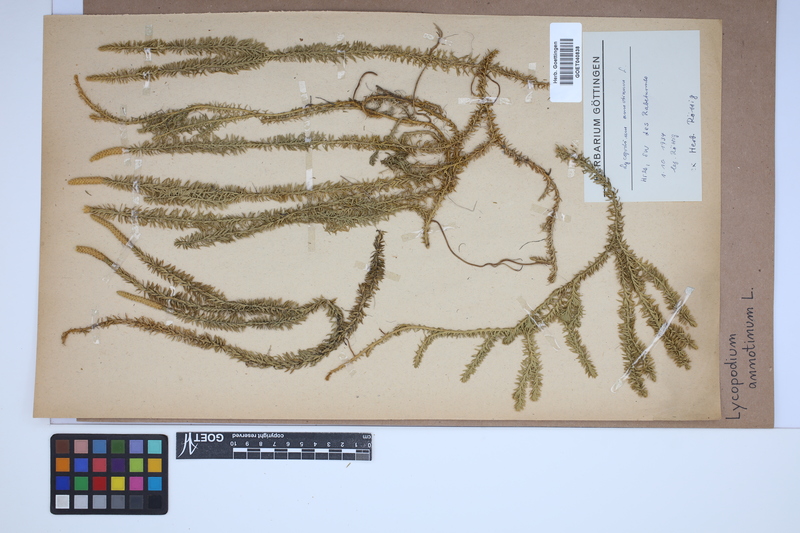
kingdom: Plantae
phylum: Tracheophyta
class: Lycopodiopsida
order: Lycopodiales
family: Lycopodiaceae
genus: Spinulum
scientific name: Spinulum annotinum
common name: Interrupted club-moss
